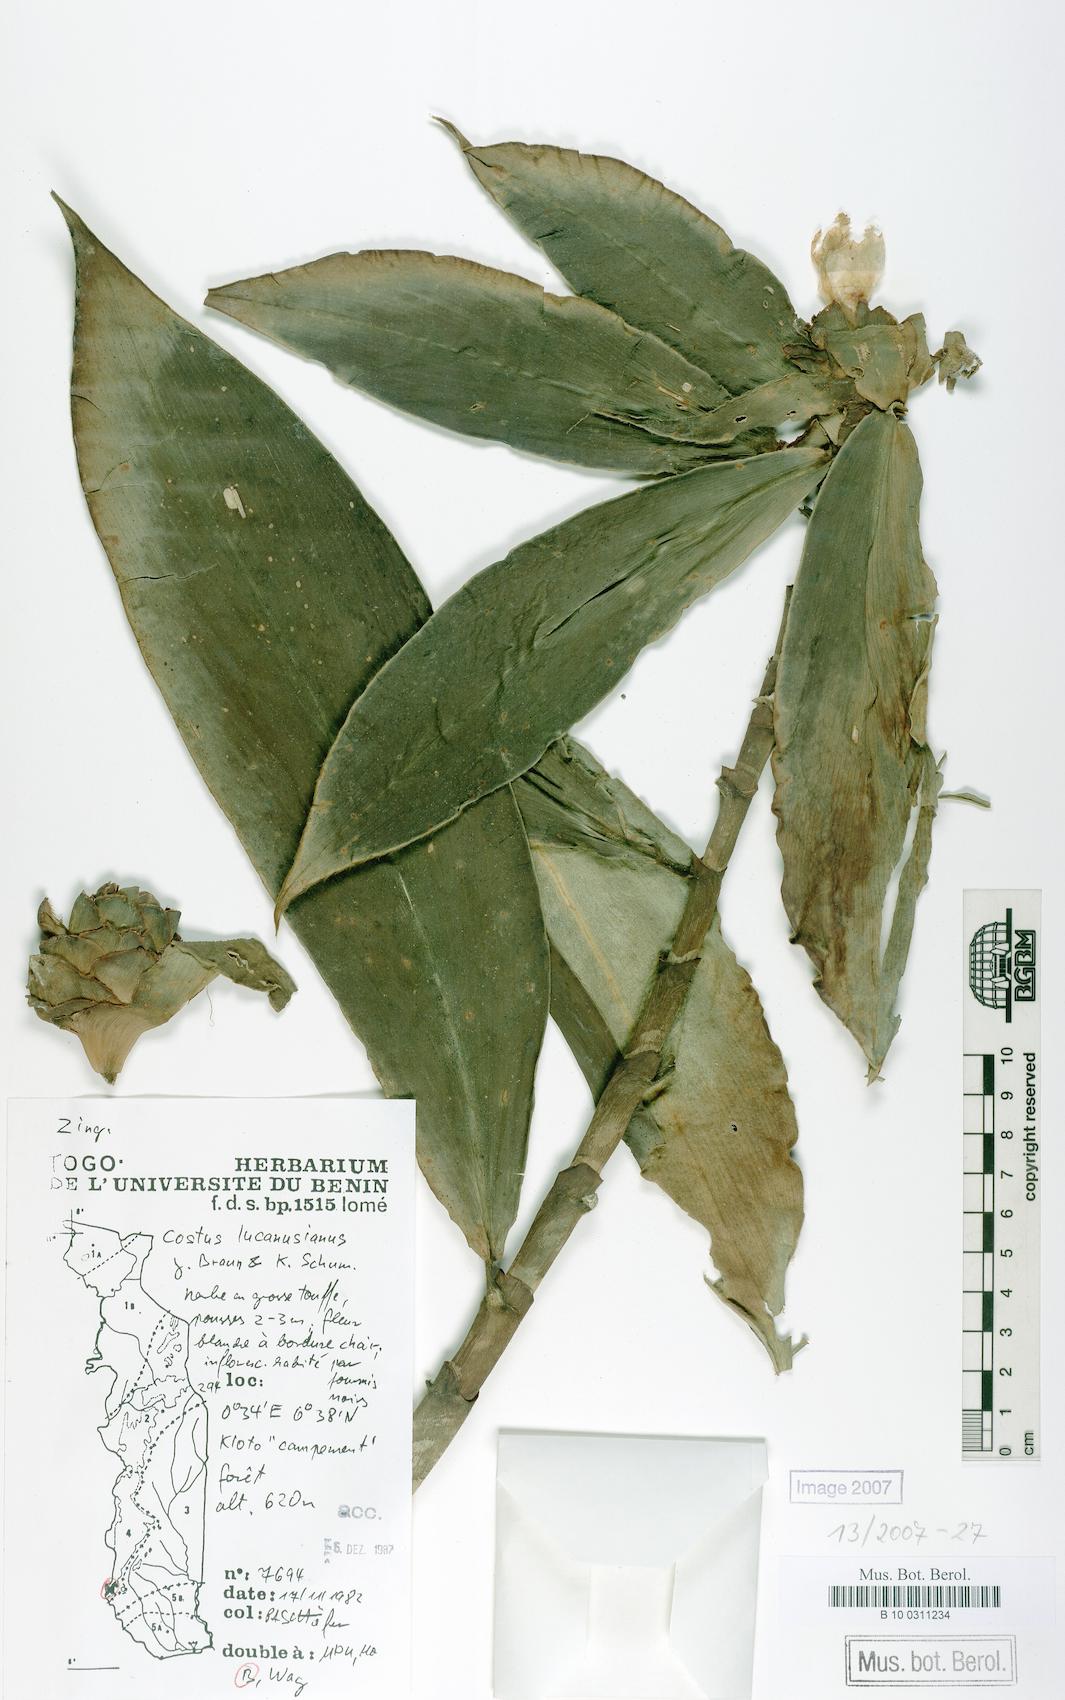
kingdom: Plantae
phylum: Tracheophyta
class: Liliopsida
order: Zingiberales
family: Costaceae
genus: Costus
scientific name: Costus lucanusianus
